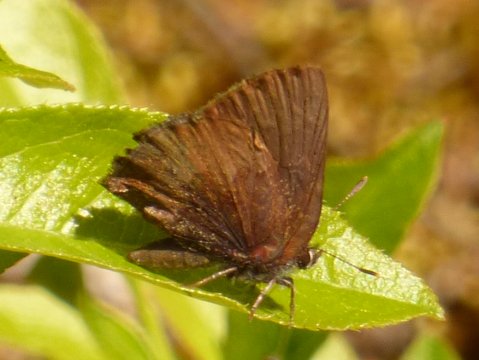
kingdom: Animalia
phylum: Arthropoda
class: Insecta
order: Lepidoptera
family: Lycaenidae
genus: Incisalia
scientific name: Incisalia irioides
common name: Brown Elfin
